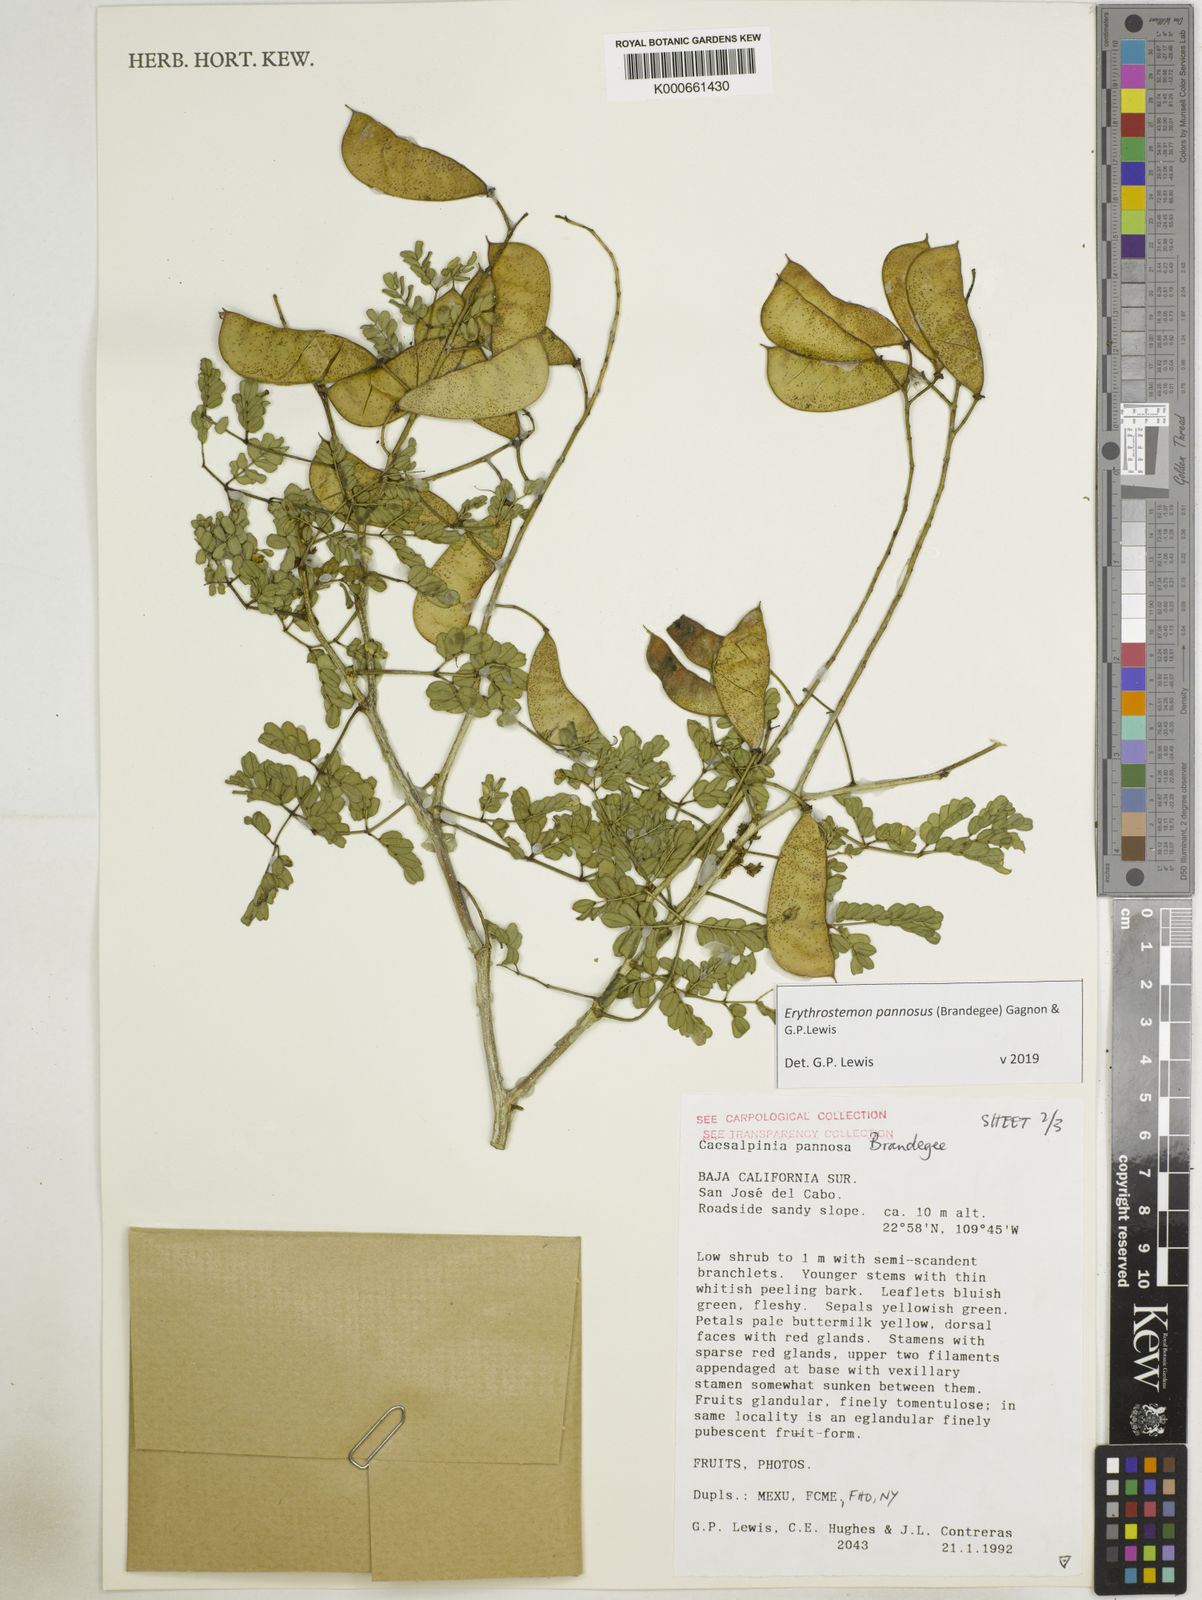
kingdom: Plantae
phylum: Tracheophyta
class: Magnoliopsida
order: Fabales
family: Fabaceae
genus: Erythrostemon
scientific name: Erythrostemon pannosus
